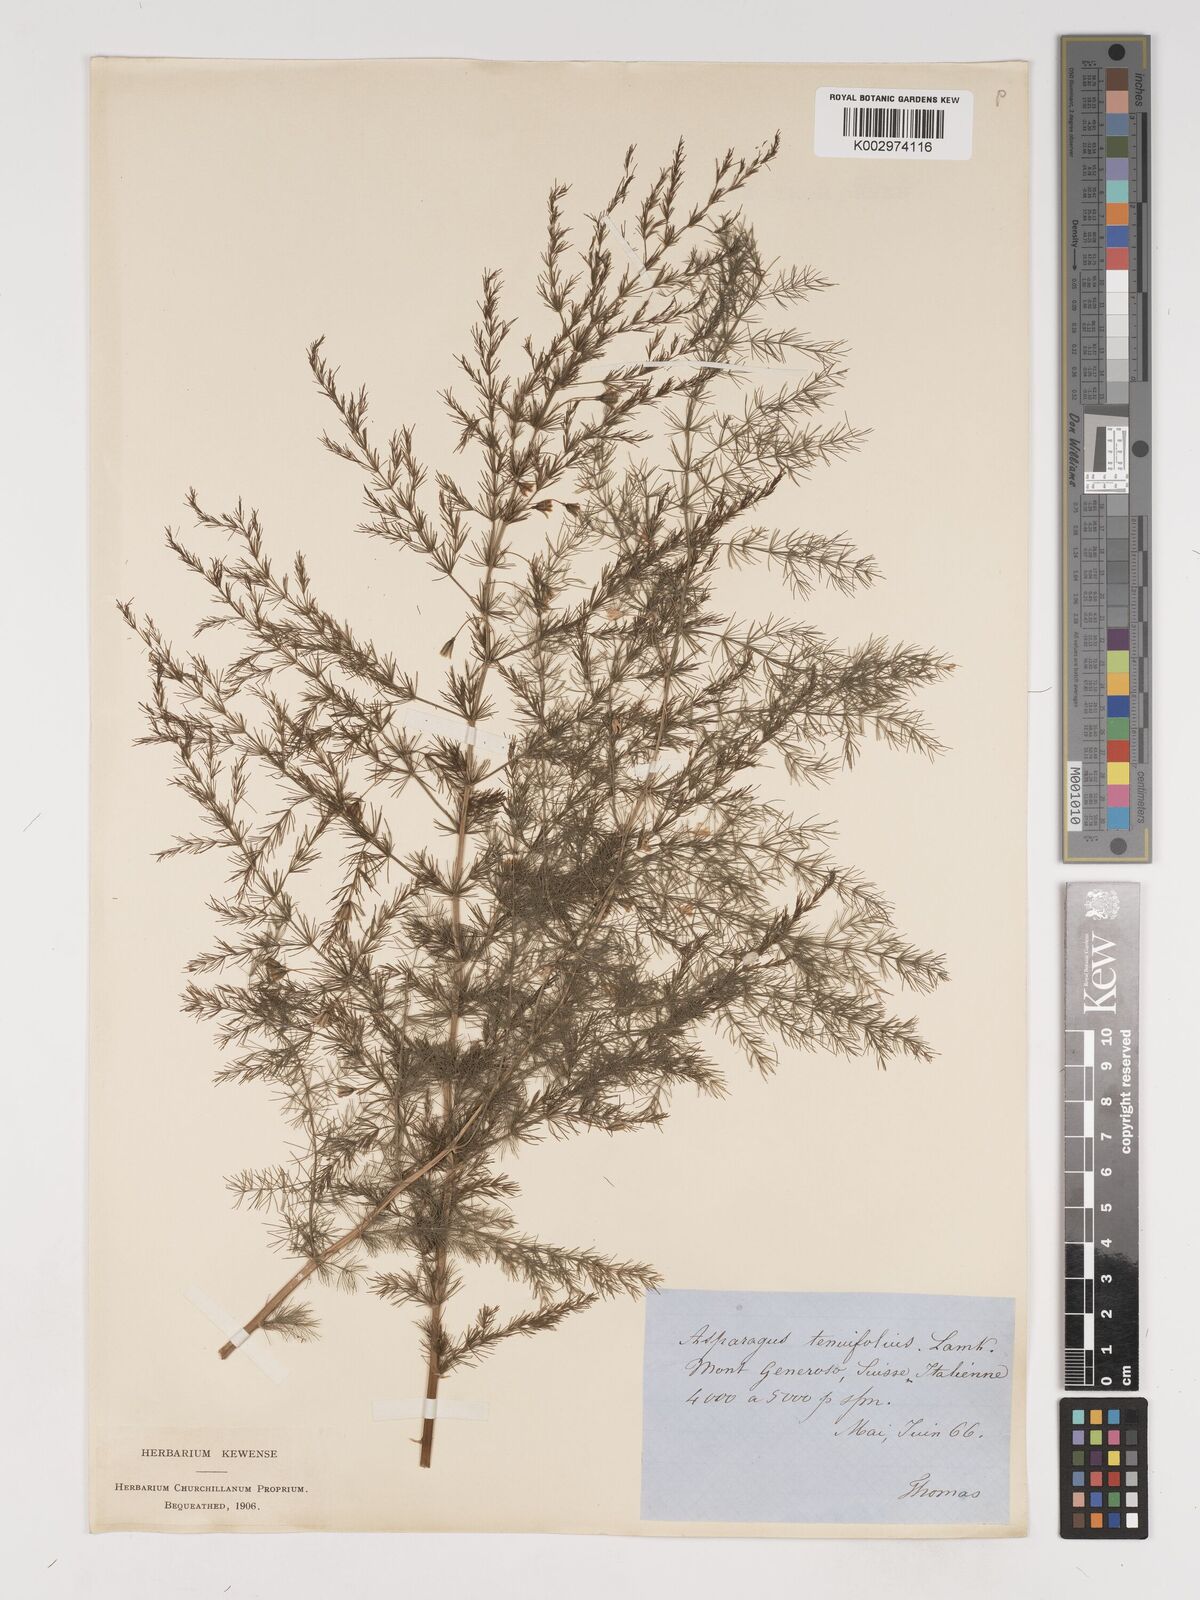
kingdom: Plantae
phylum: Tracheophyta
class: Liliopsida
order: Asparagales
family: Asparagaceae
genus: Asparagus
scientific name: Asparagus tenuifolius
